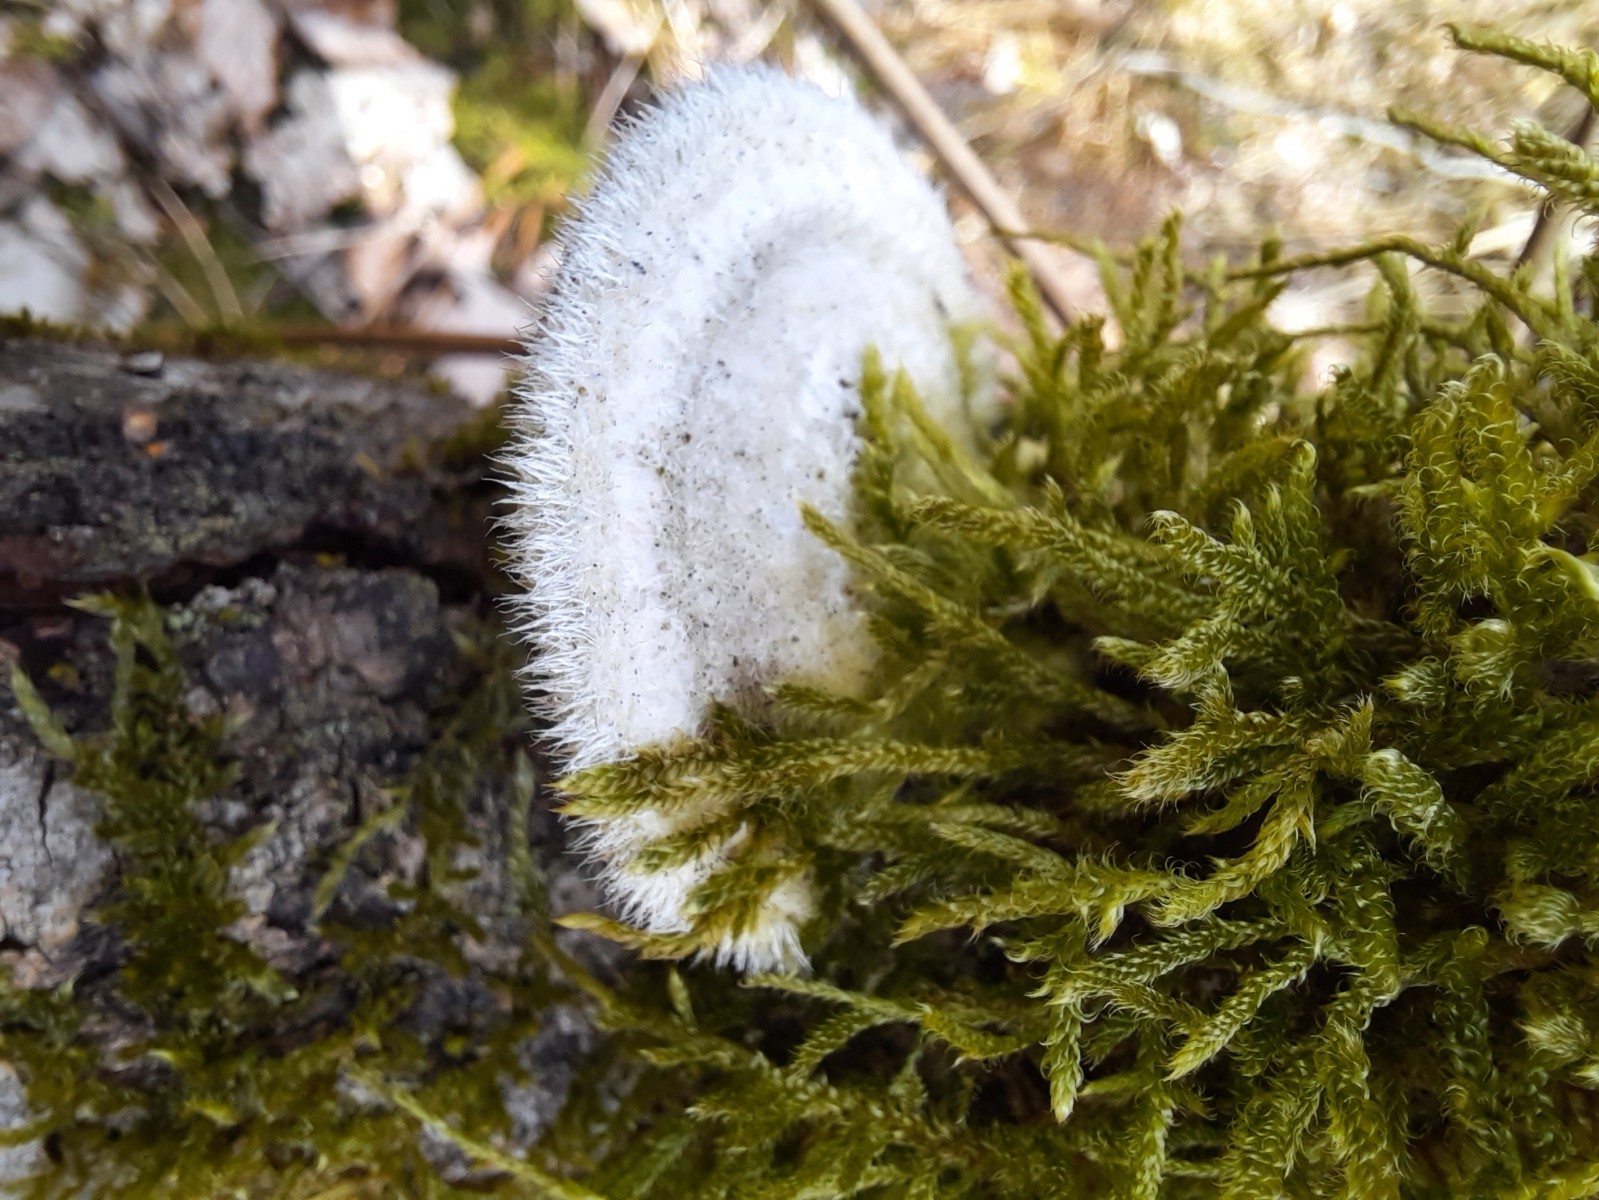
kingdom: Fungi
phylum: Basidiomycota
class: Agaricomycetes
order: Polyporales
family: Polyporaceae
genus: Trametes
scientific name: Trametes hirsuta
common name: håret læderporesvamp
